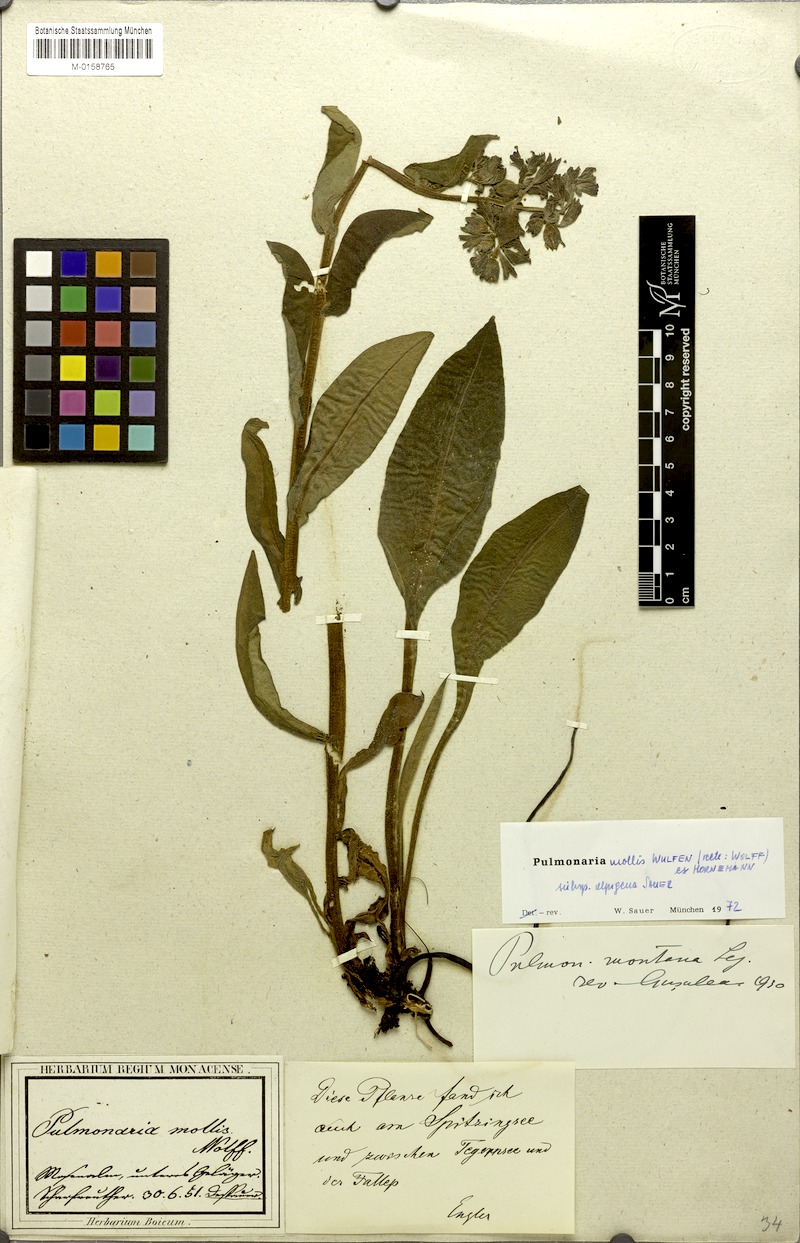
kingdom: Plantae
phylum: Tracheophyta
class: Magnoliopsida
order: Boraginales
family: Boraginaceae
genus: Pulmonaria
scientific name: Pulmonaria mollis
